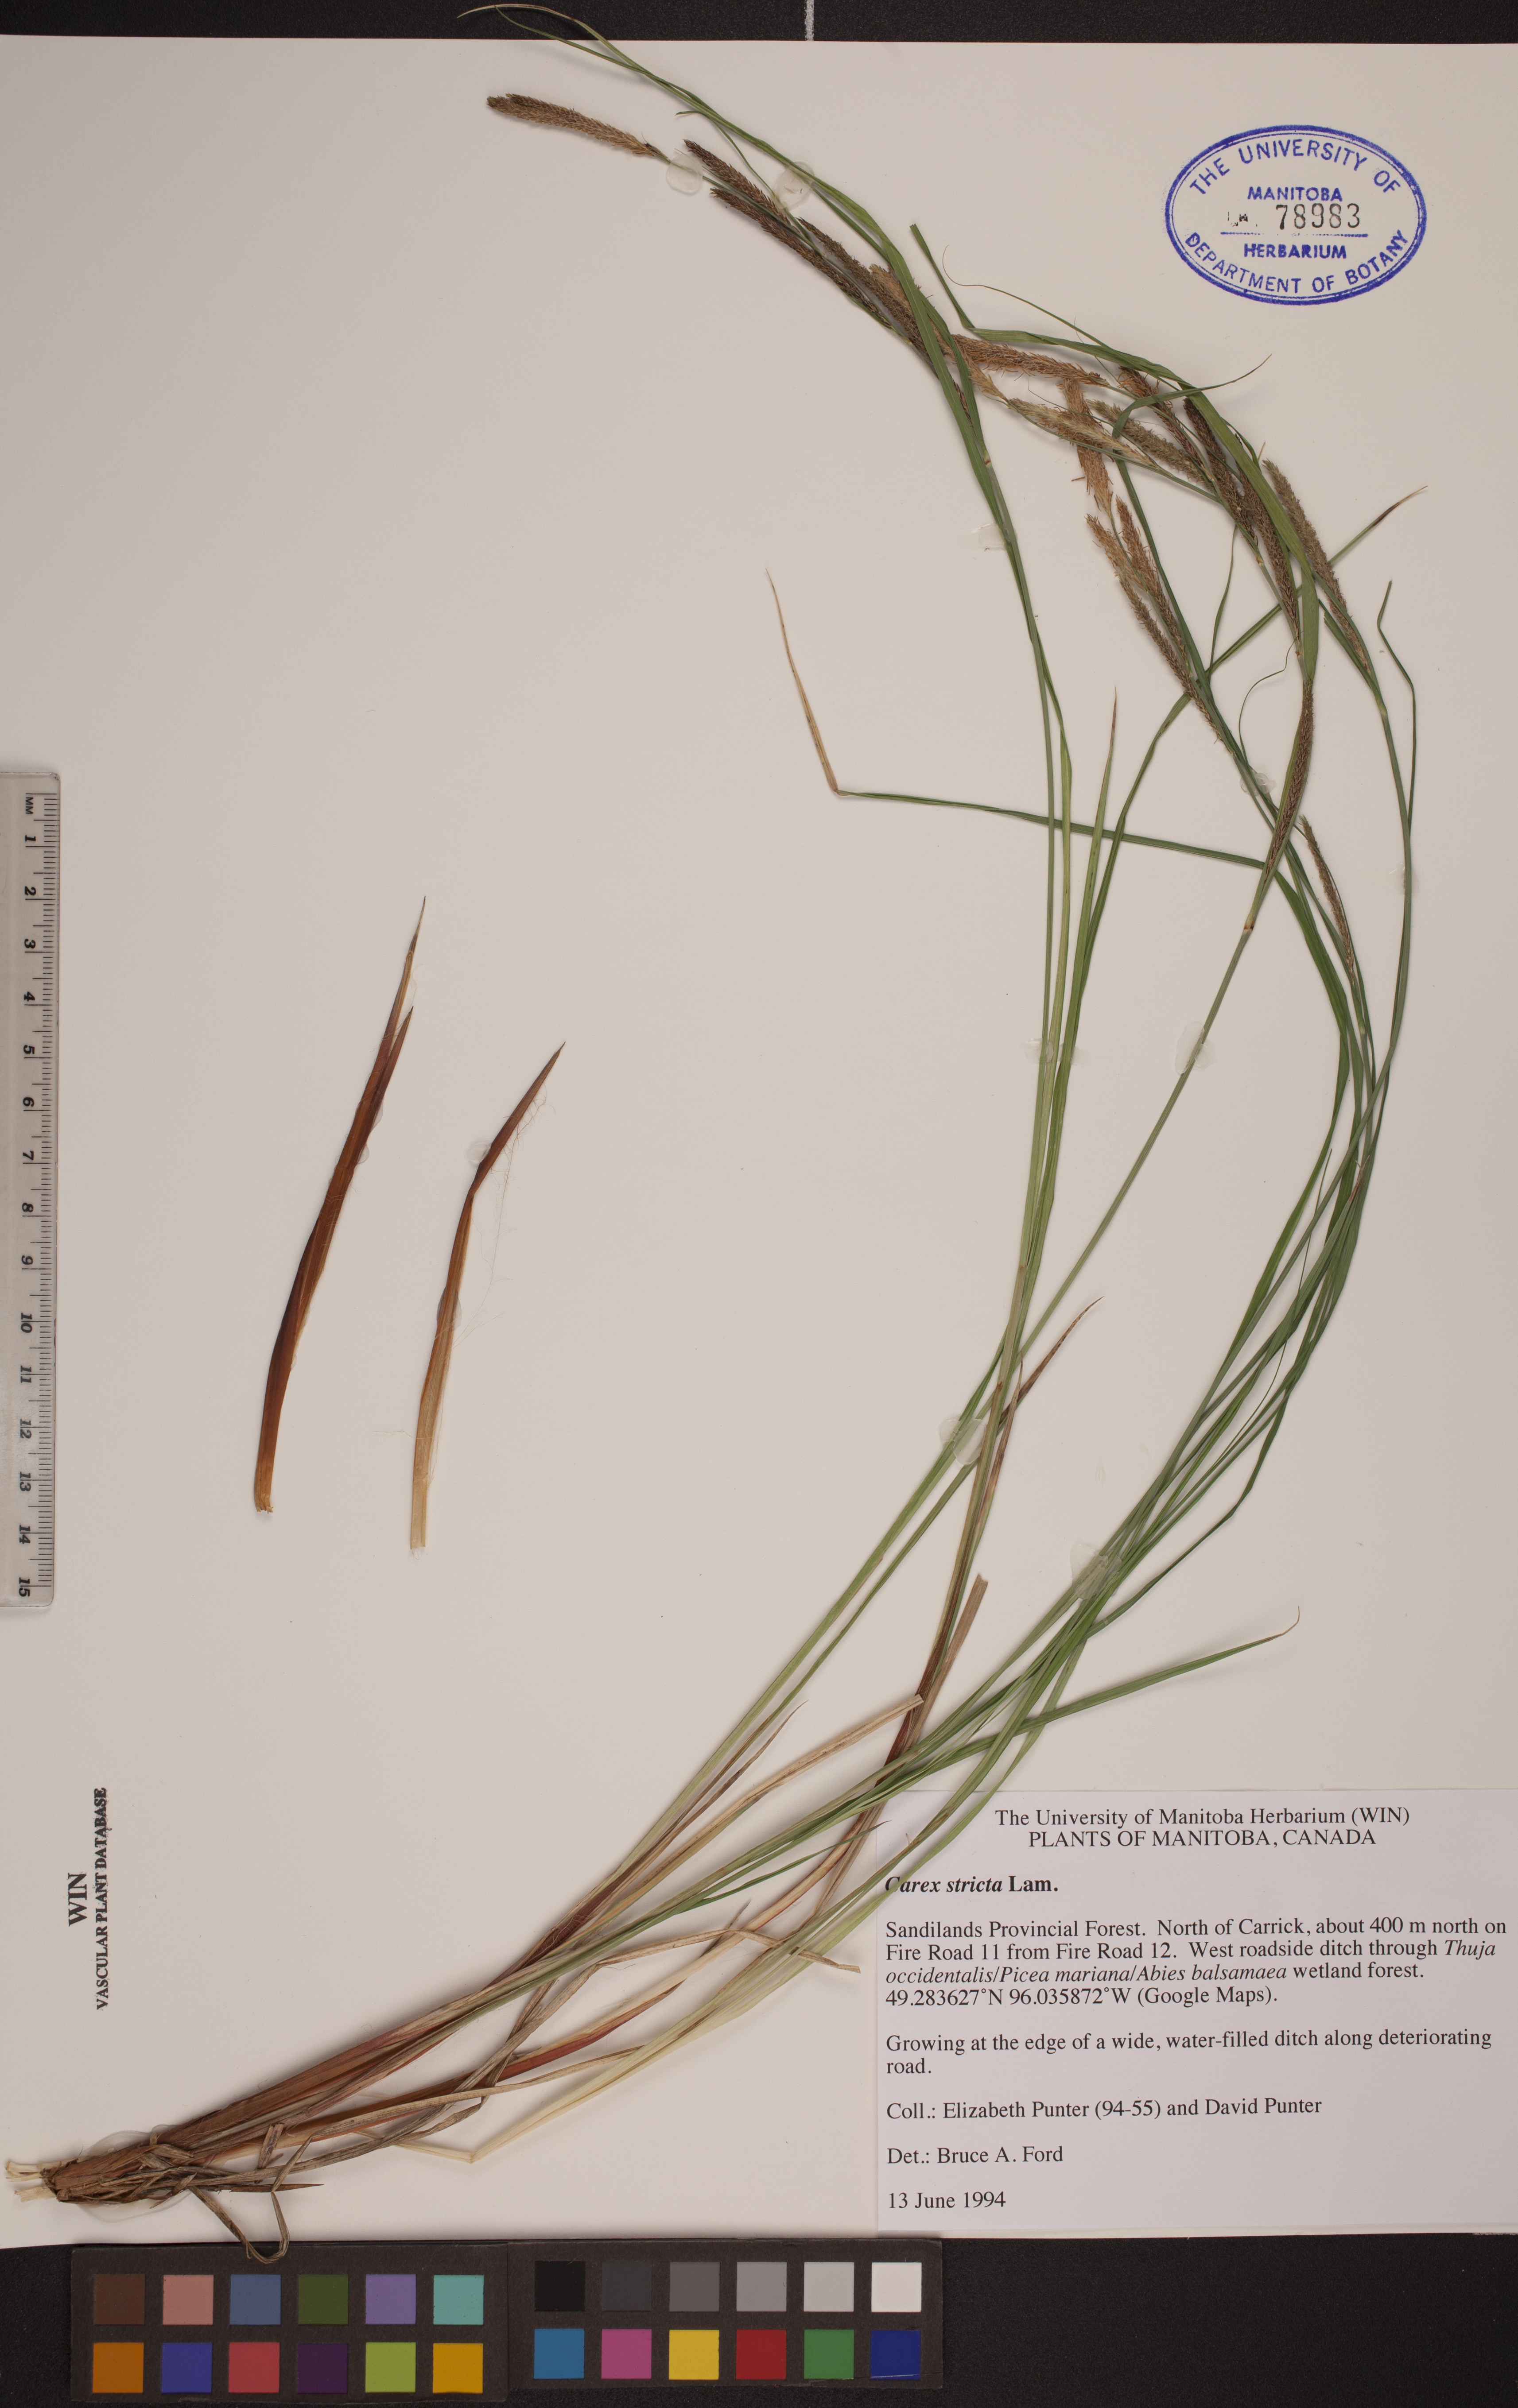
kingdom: Plantae
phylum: Tracheophyta
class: Liliopsida
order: Poales
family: Cyperaceae
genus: Carex
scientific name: Carex stricta
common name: Hummock sedge
